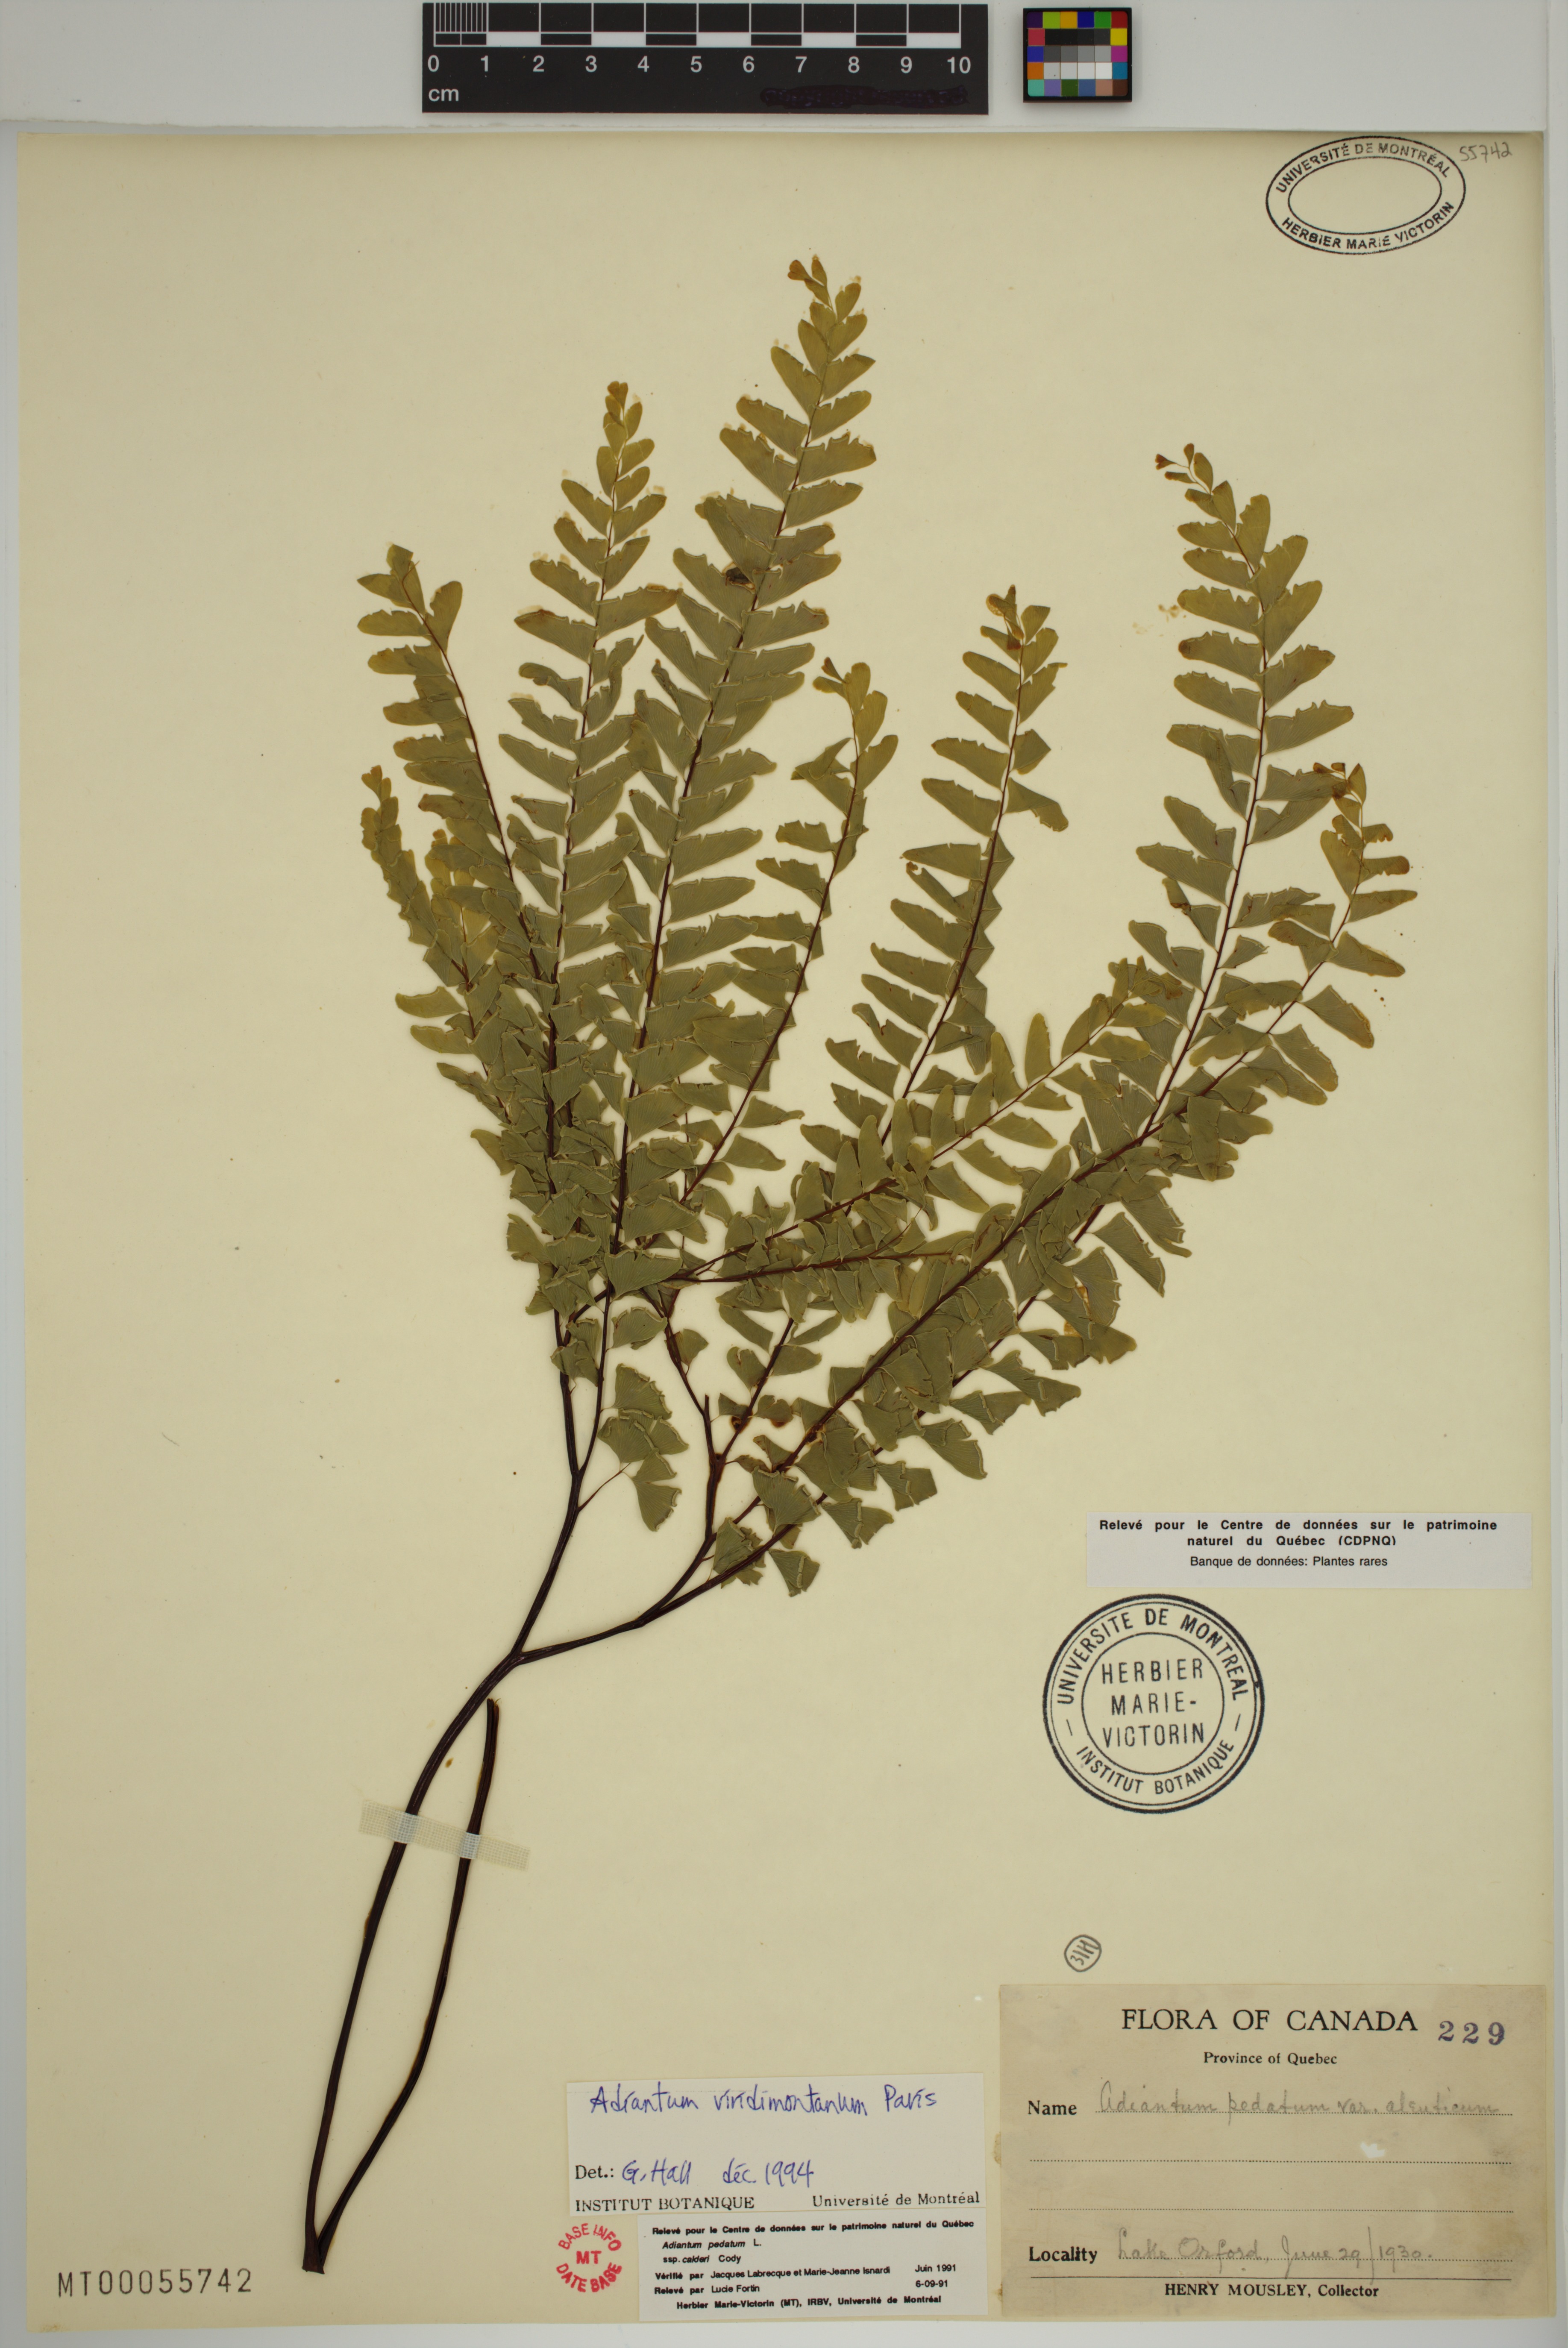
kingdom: Plantae
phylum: Tracheophyta
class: Polypodiopsida
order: Polypodiales
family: Pteridaceae
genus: Adiantum
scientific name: Adiantum viridimontanum
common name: Green mountain maidenhair
